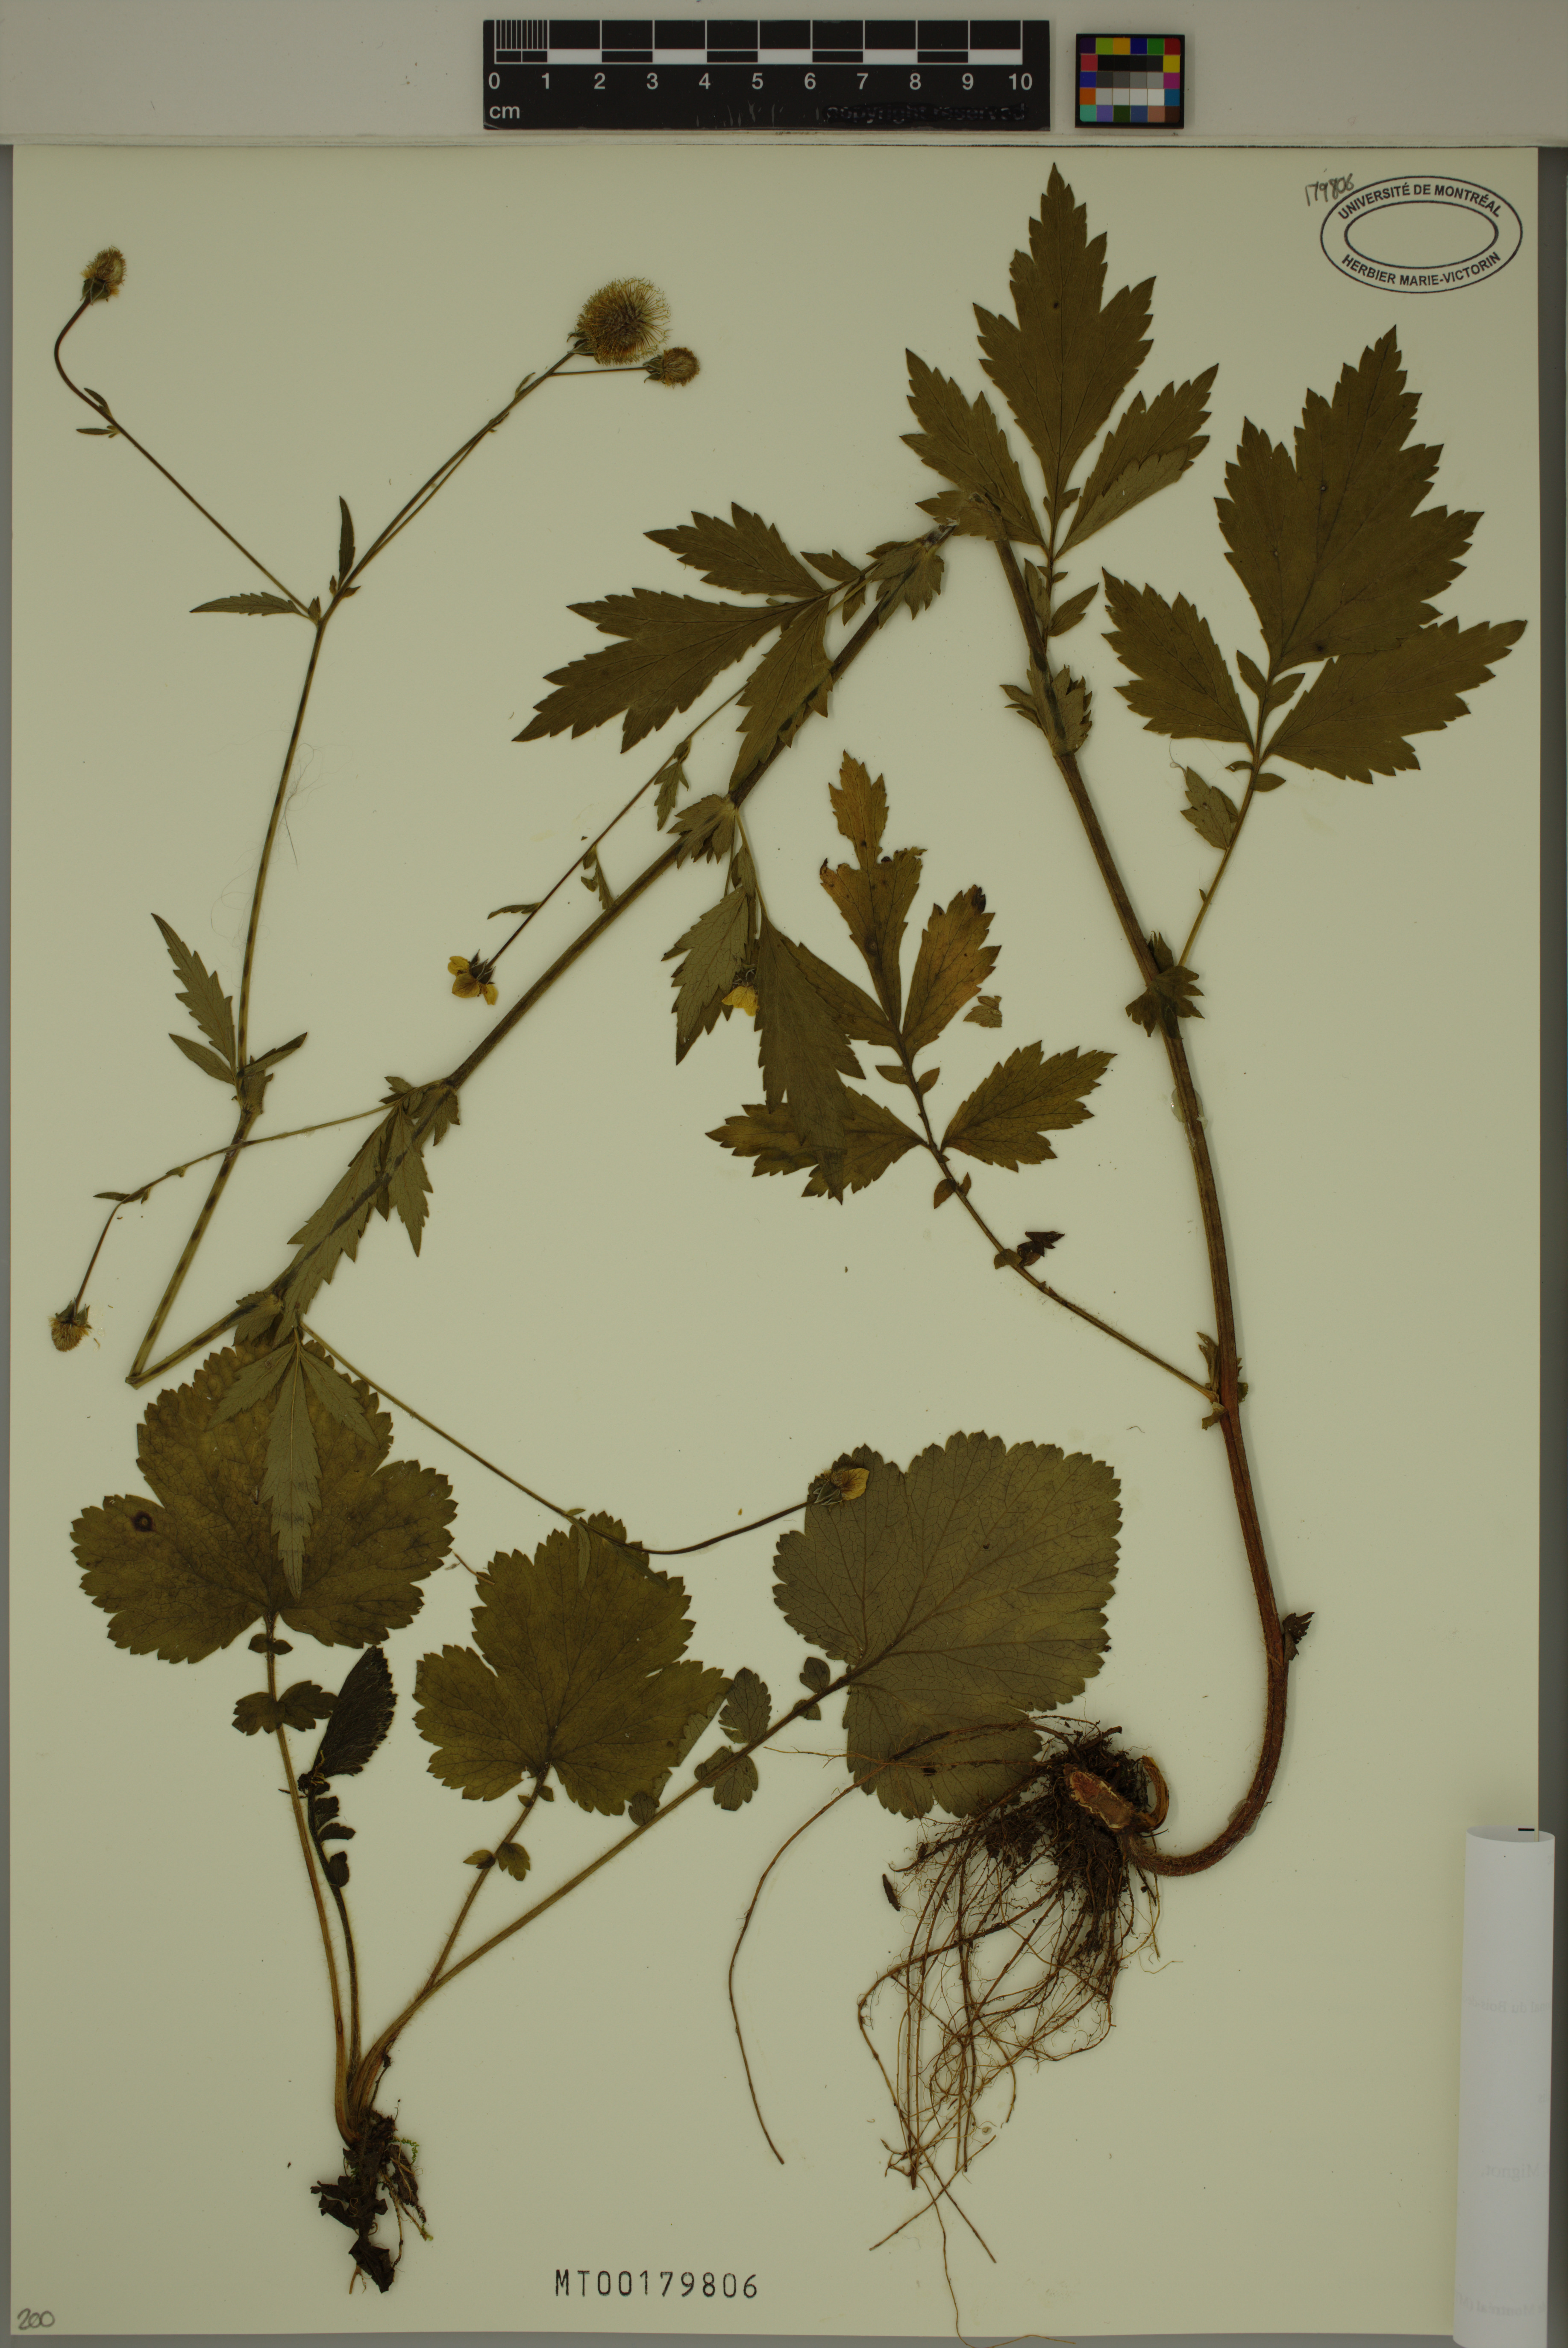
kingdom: Plantae
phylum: Tracheophyta
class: Magnoliopsida
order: Rosales
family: Rosaceae
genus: Geum
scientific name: Geum aleppicum
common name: Yellow avens
